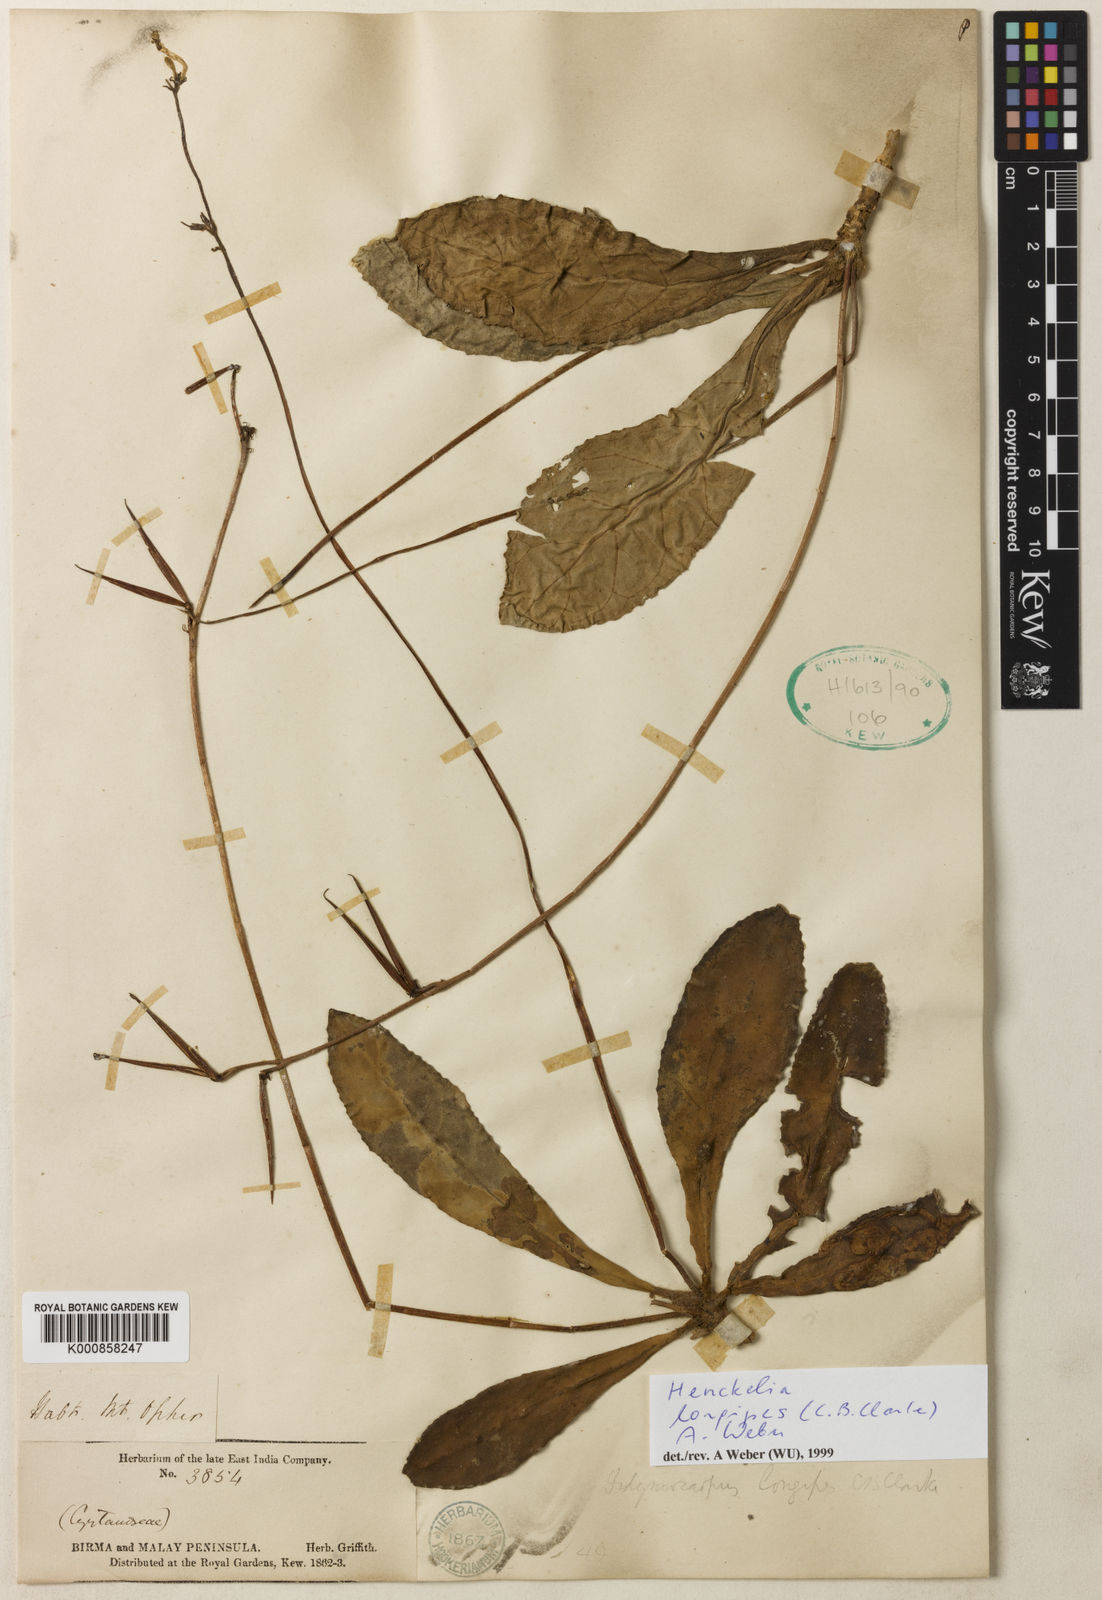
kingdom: Plantae
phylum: Tracheophyta
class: Magnoliopsida
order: Lamiales
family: Gesneriaceae
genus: Codonoboea
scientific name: Codonoboea longipes
